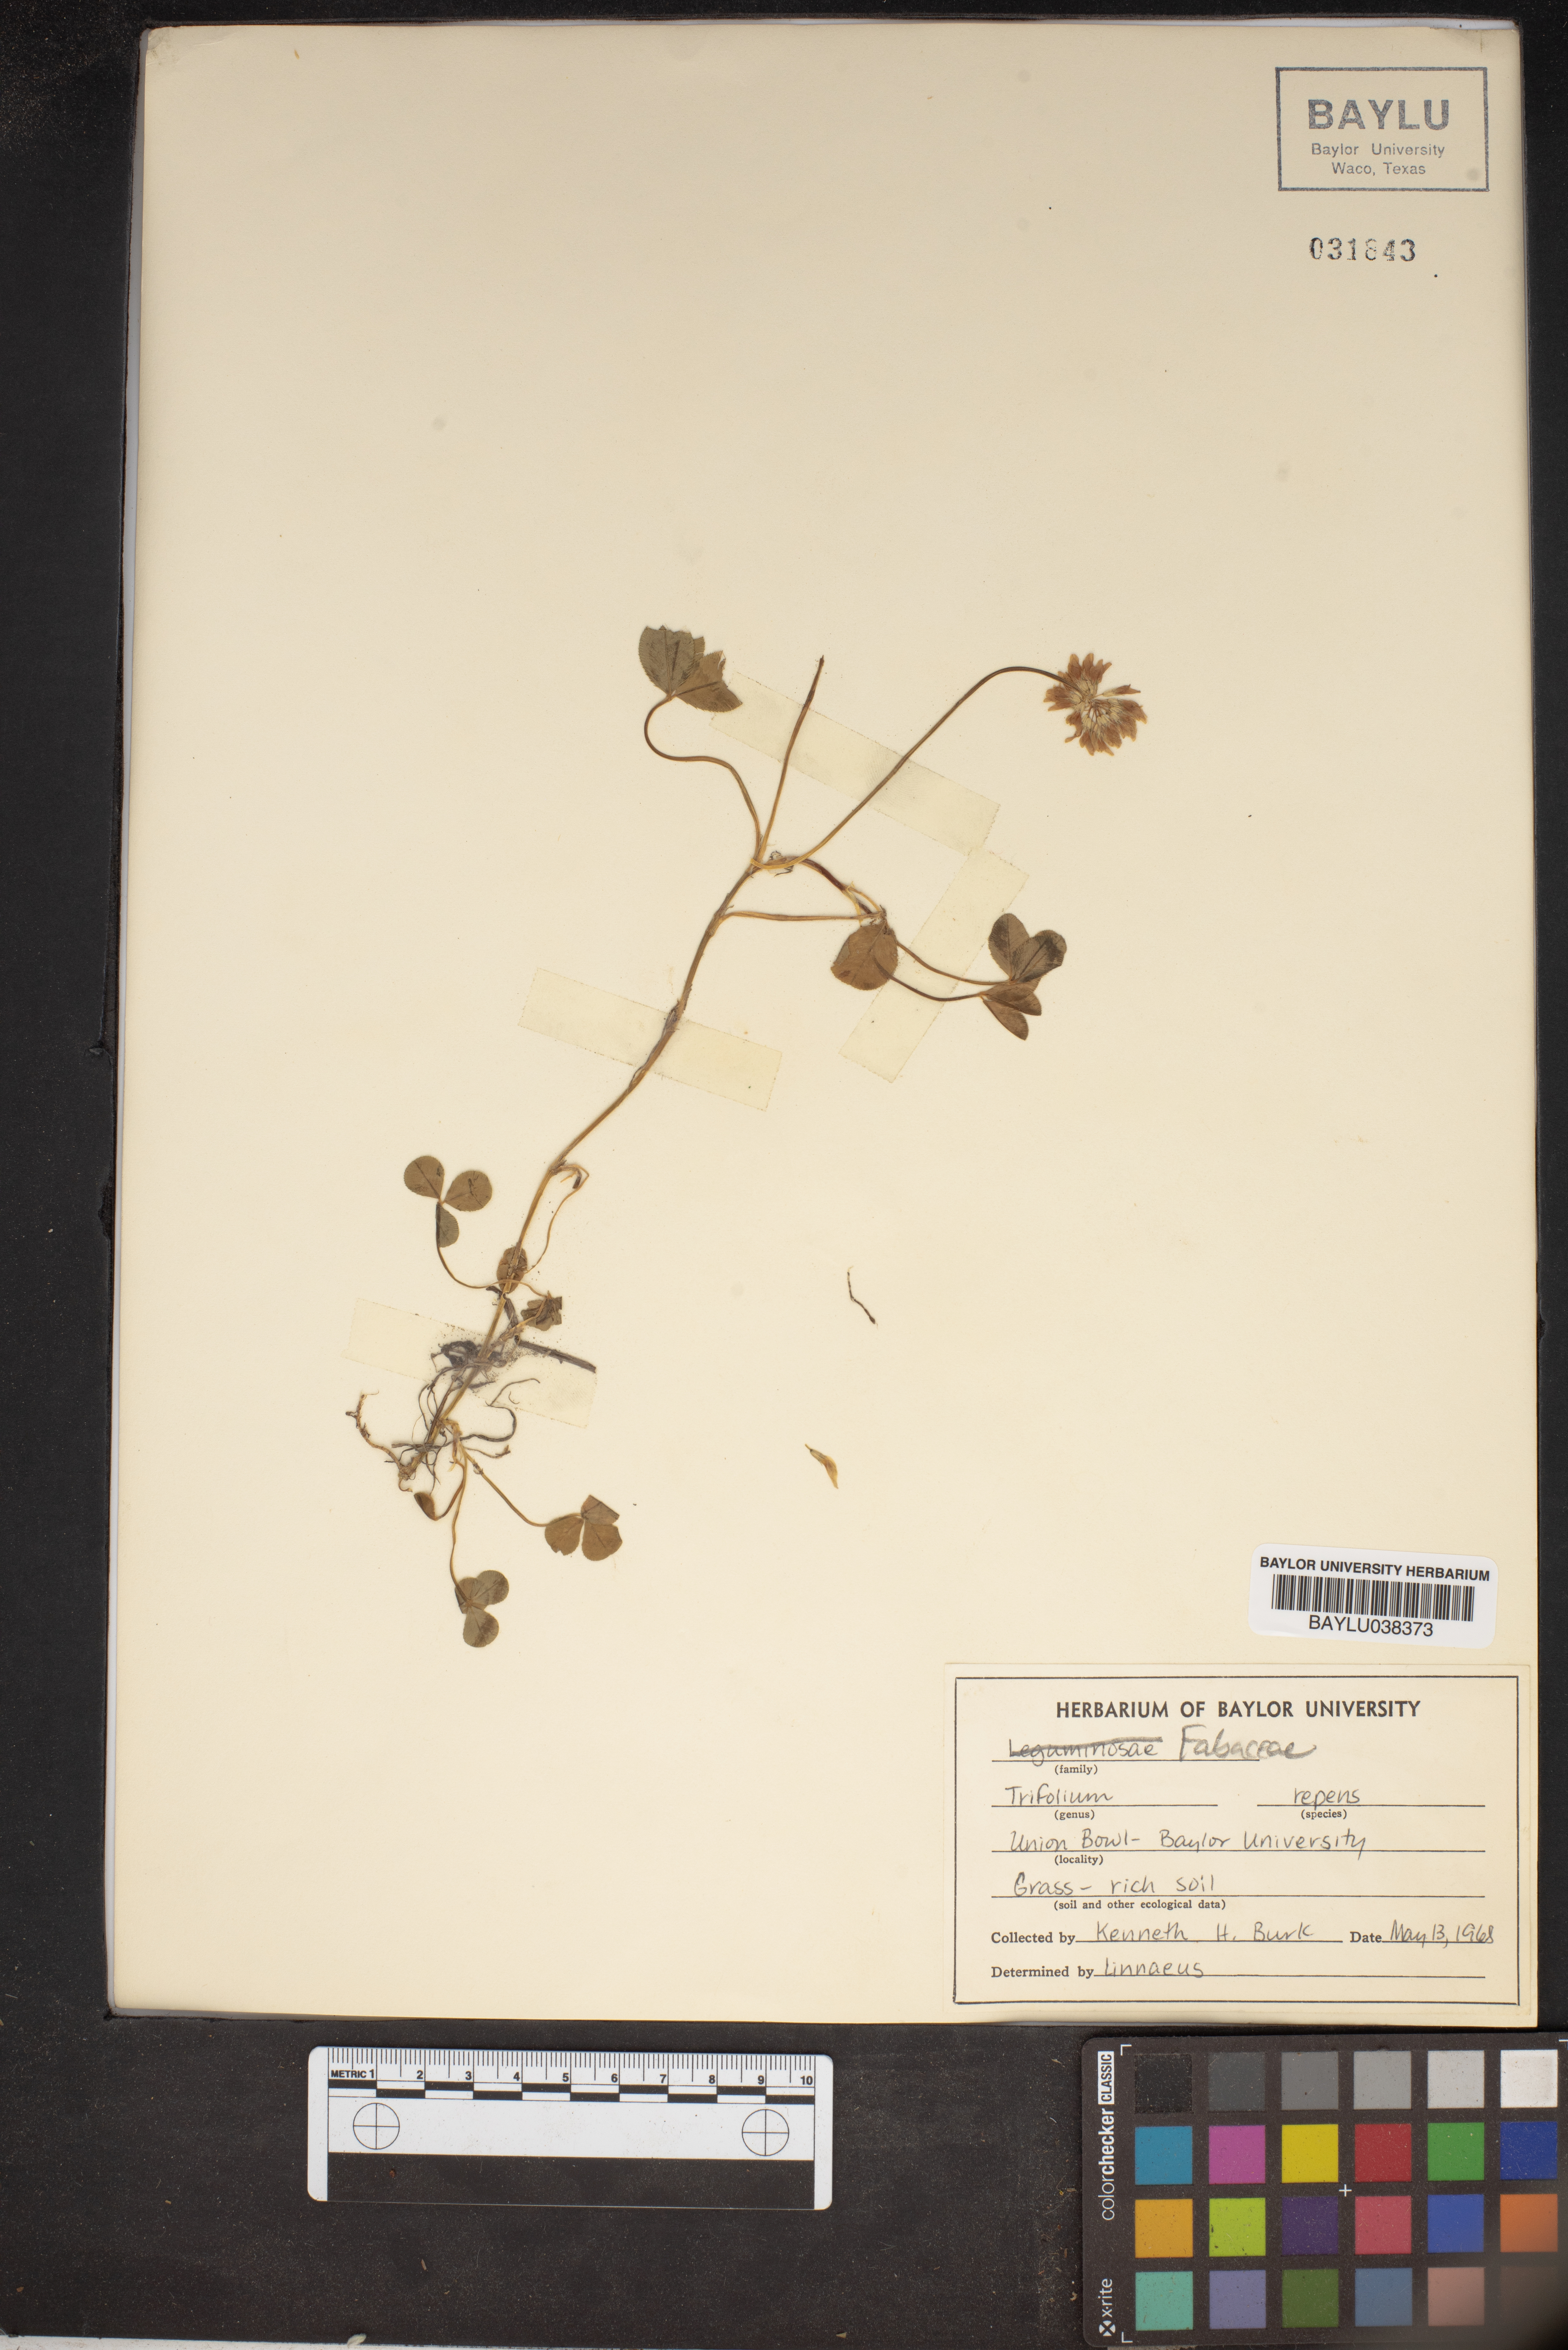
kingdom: Plantae
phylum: Tracheophyta
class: Magnoliopsida
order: Fabales
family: Fabaceae
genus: Trifolium
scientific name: Trifolium repens
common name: White clover
